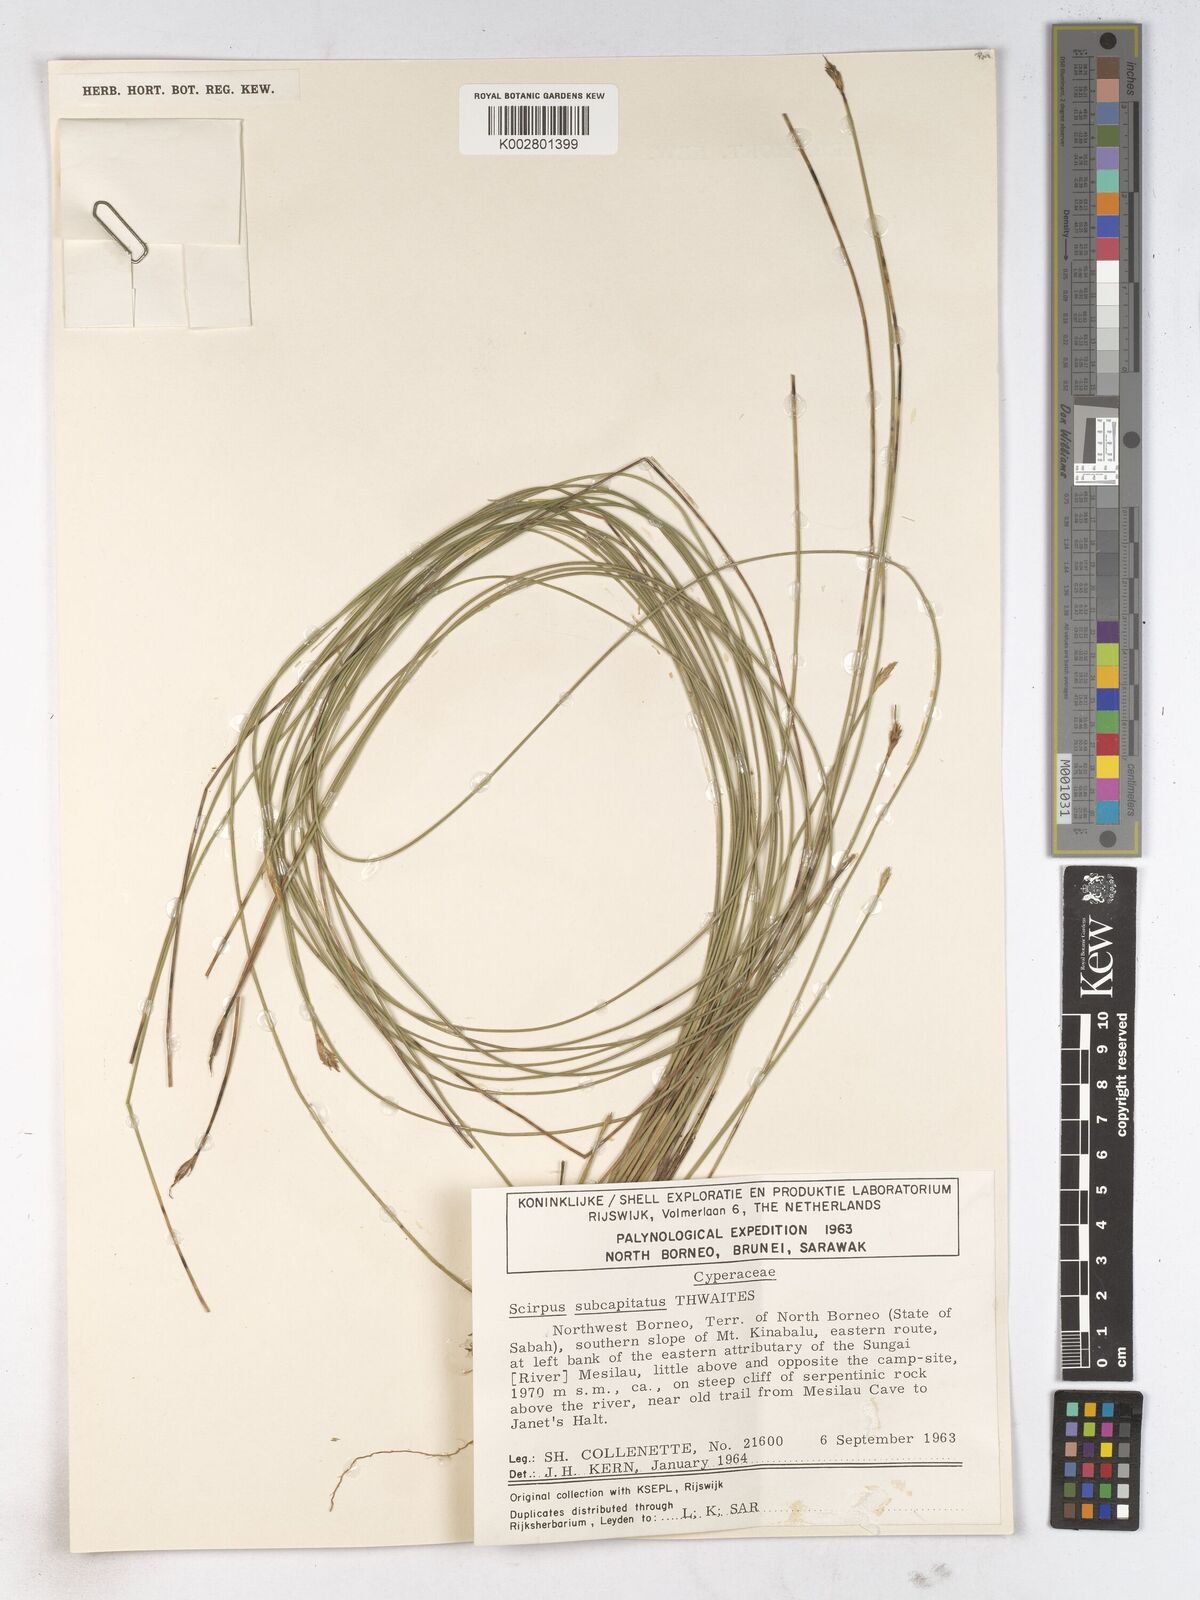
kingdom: Plantae
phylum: Tracheophyta
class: Liliopsida
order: Poales
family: Cyperaceae
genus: Trichophorum
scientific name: Trichophorum subcapitatum
